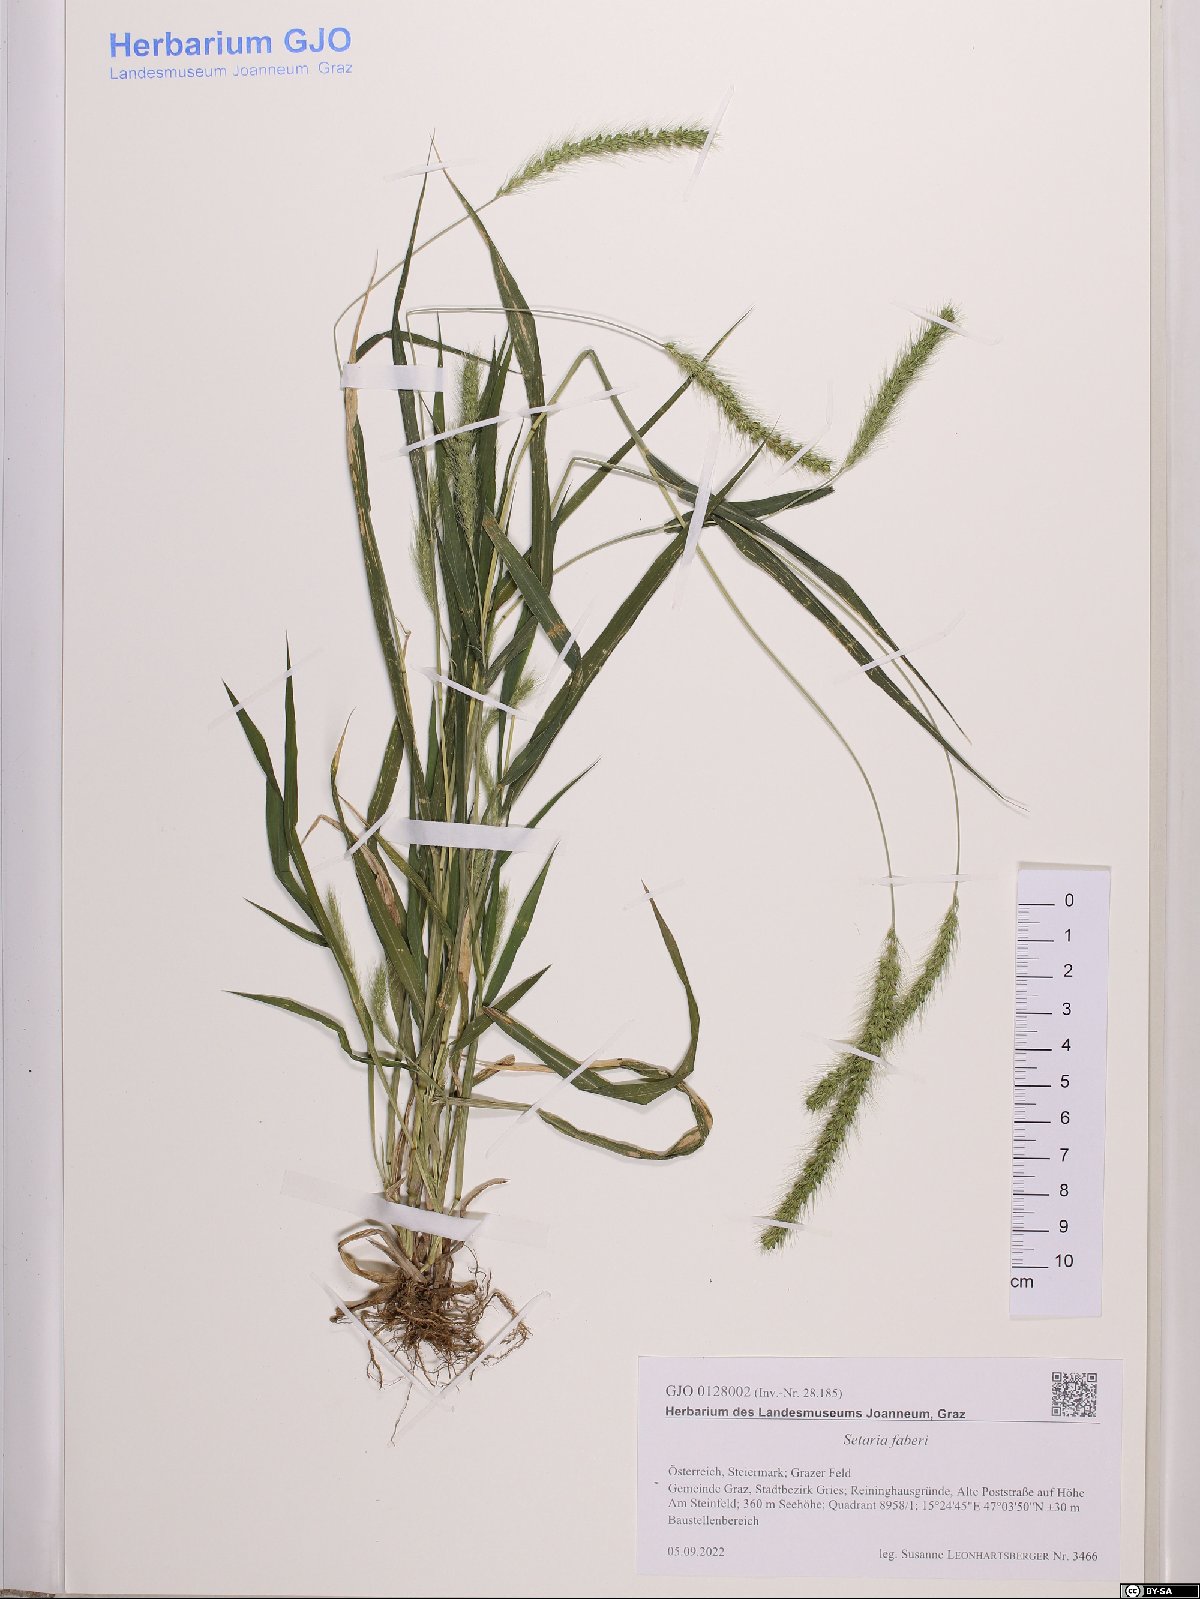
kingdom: Plantae
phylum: Tracheophyta
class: Liliopsida
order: Poales
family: Poaceae
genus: Setaria
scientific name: Setaria faberi
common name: Nodding bristle-grass
